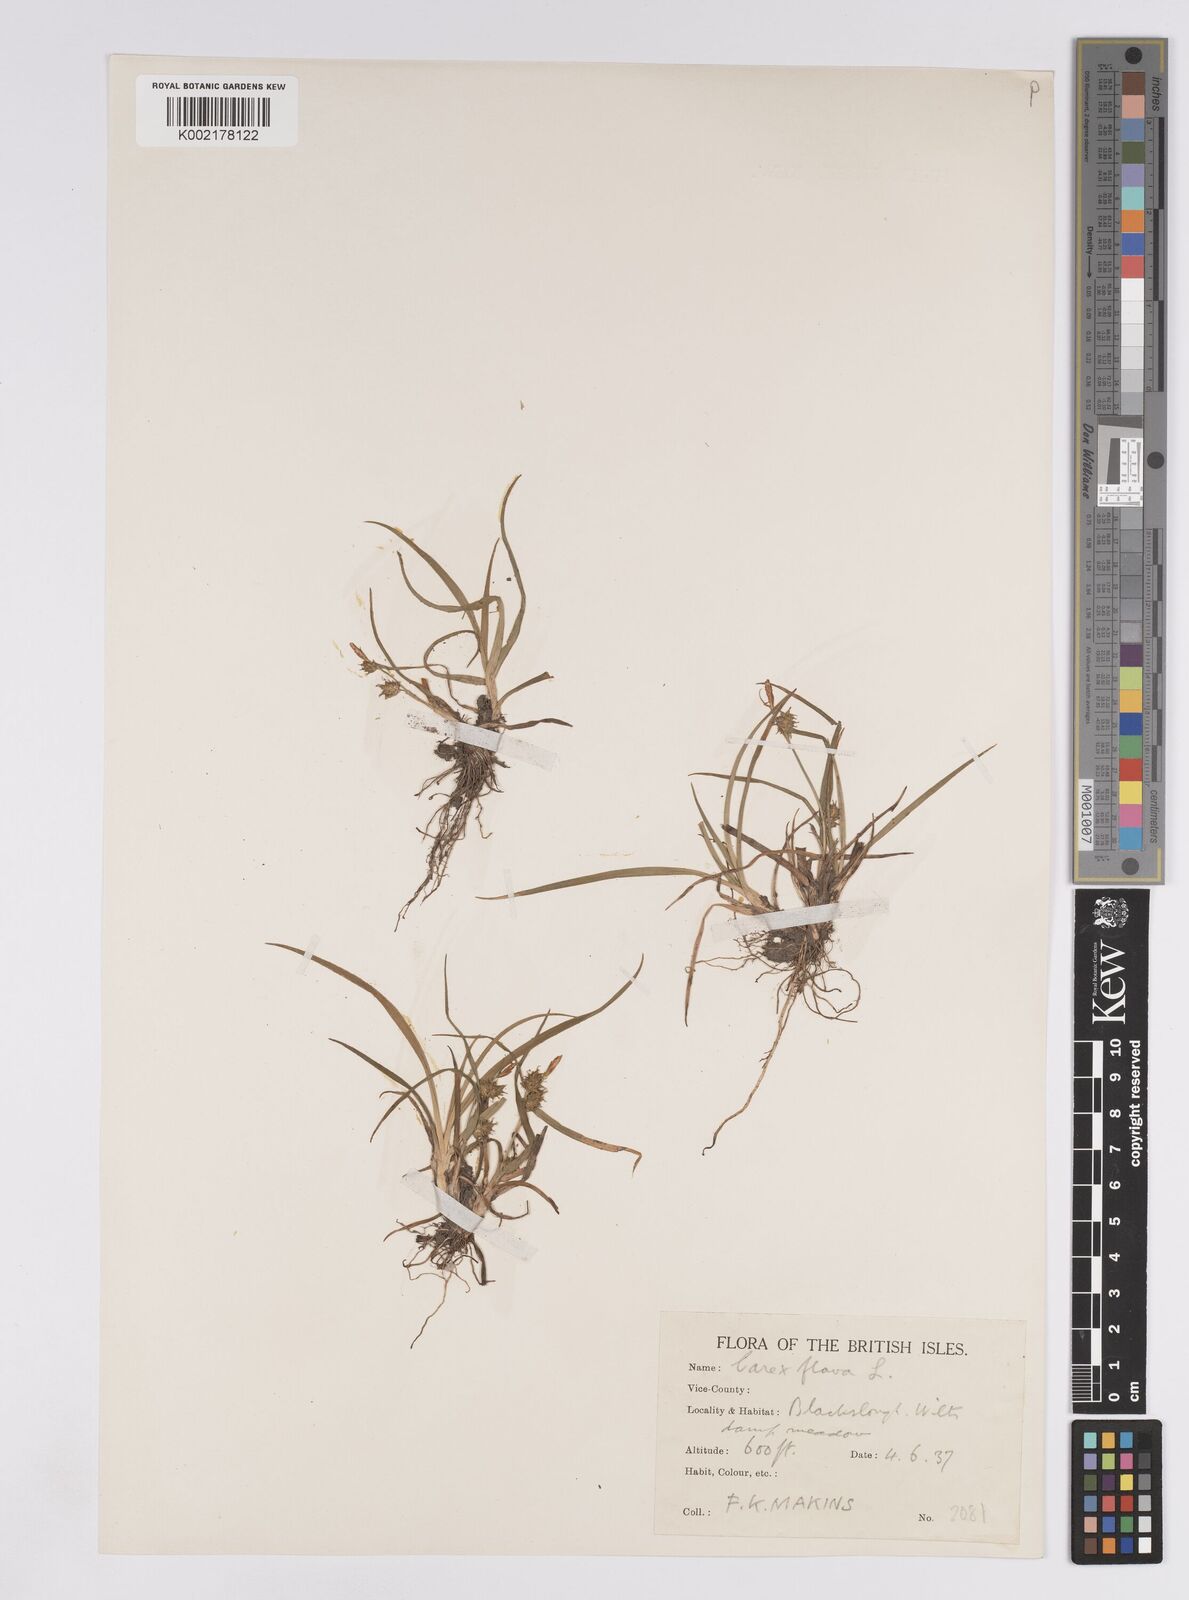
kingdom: Plantae
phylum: Tracheophyta
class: Liliopsida
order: Poales
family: Cyperaceae
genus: Carex
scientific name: Carex demissa
